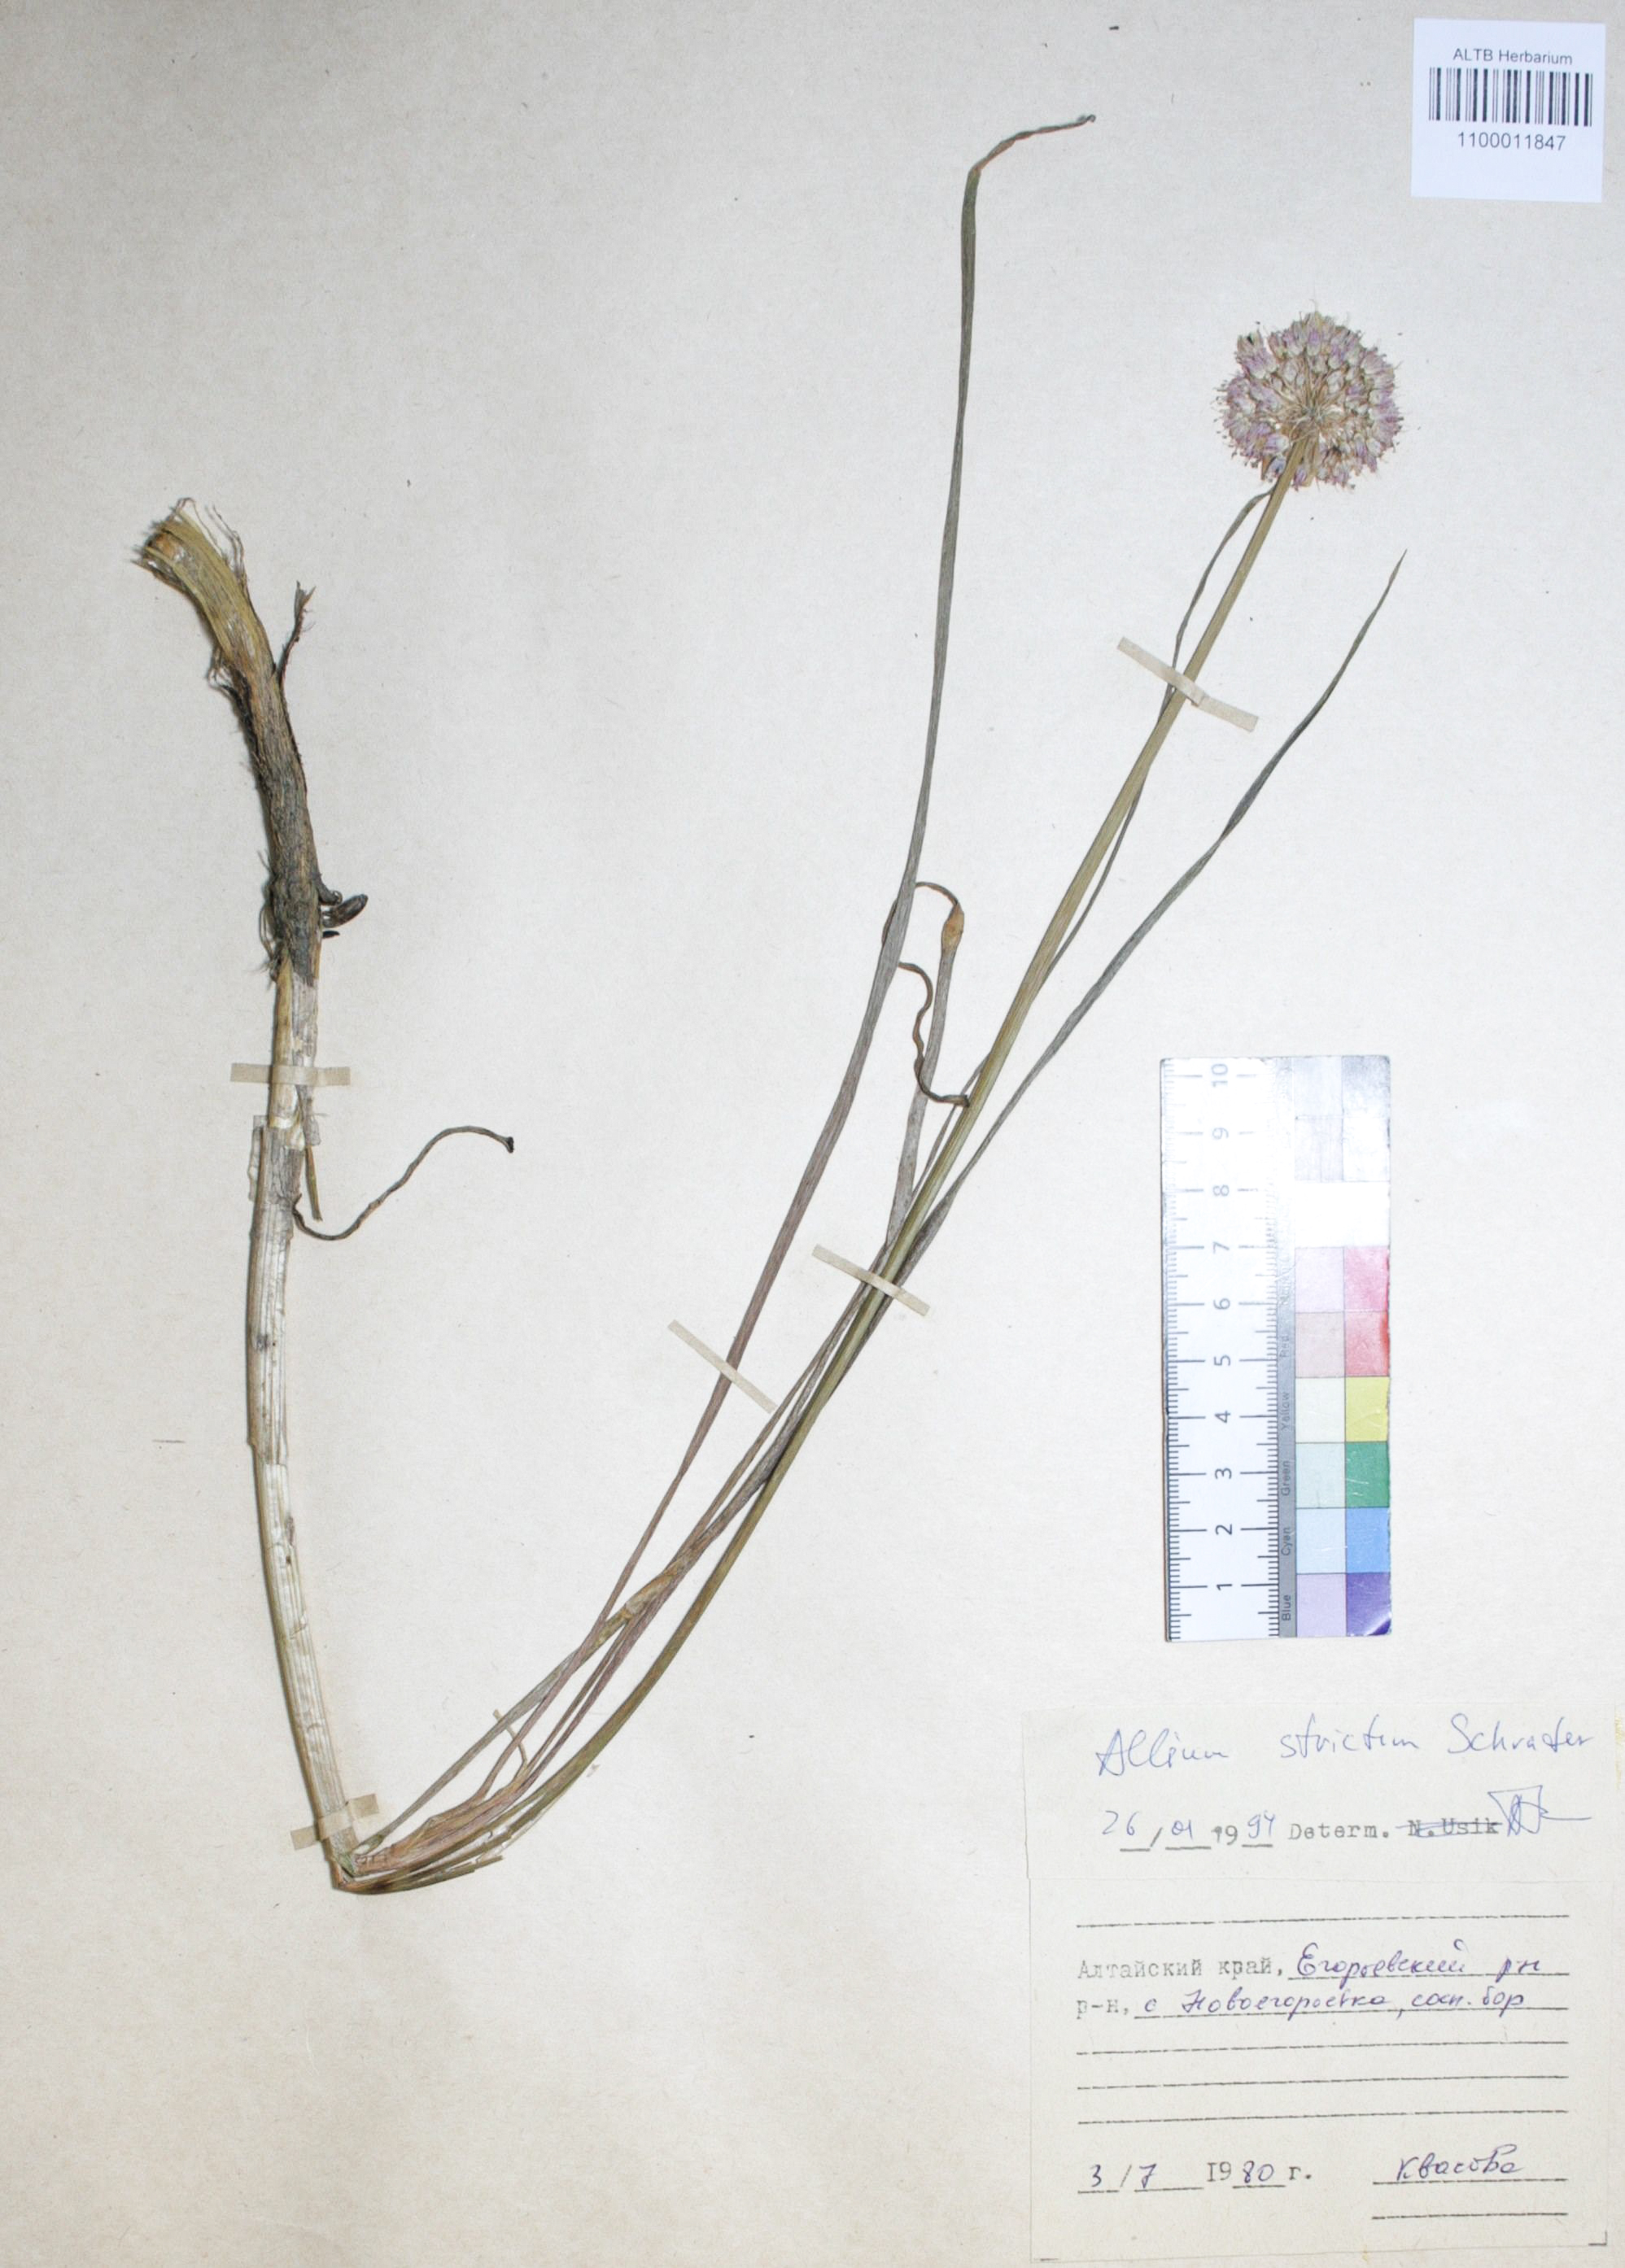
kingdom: Plantae
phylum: Tracheophyta
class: Liliopsida
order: Asparagales
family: Amaryllidaceae
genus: Allium
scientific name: Allium strictum
